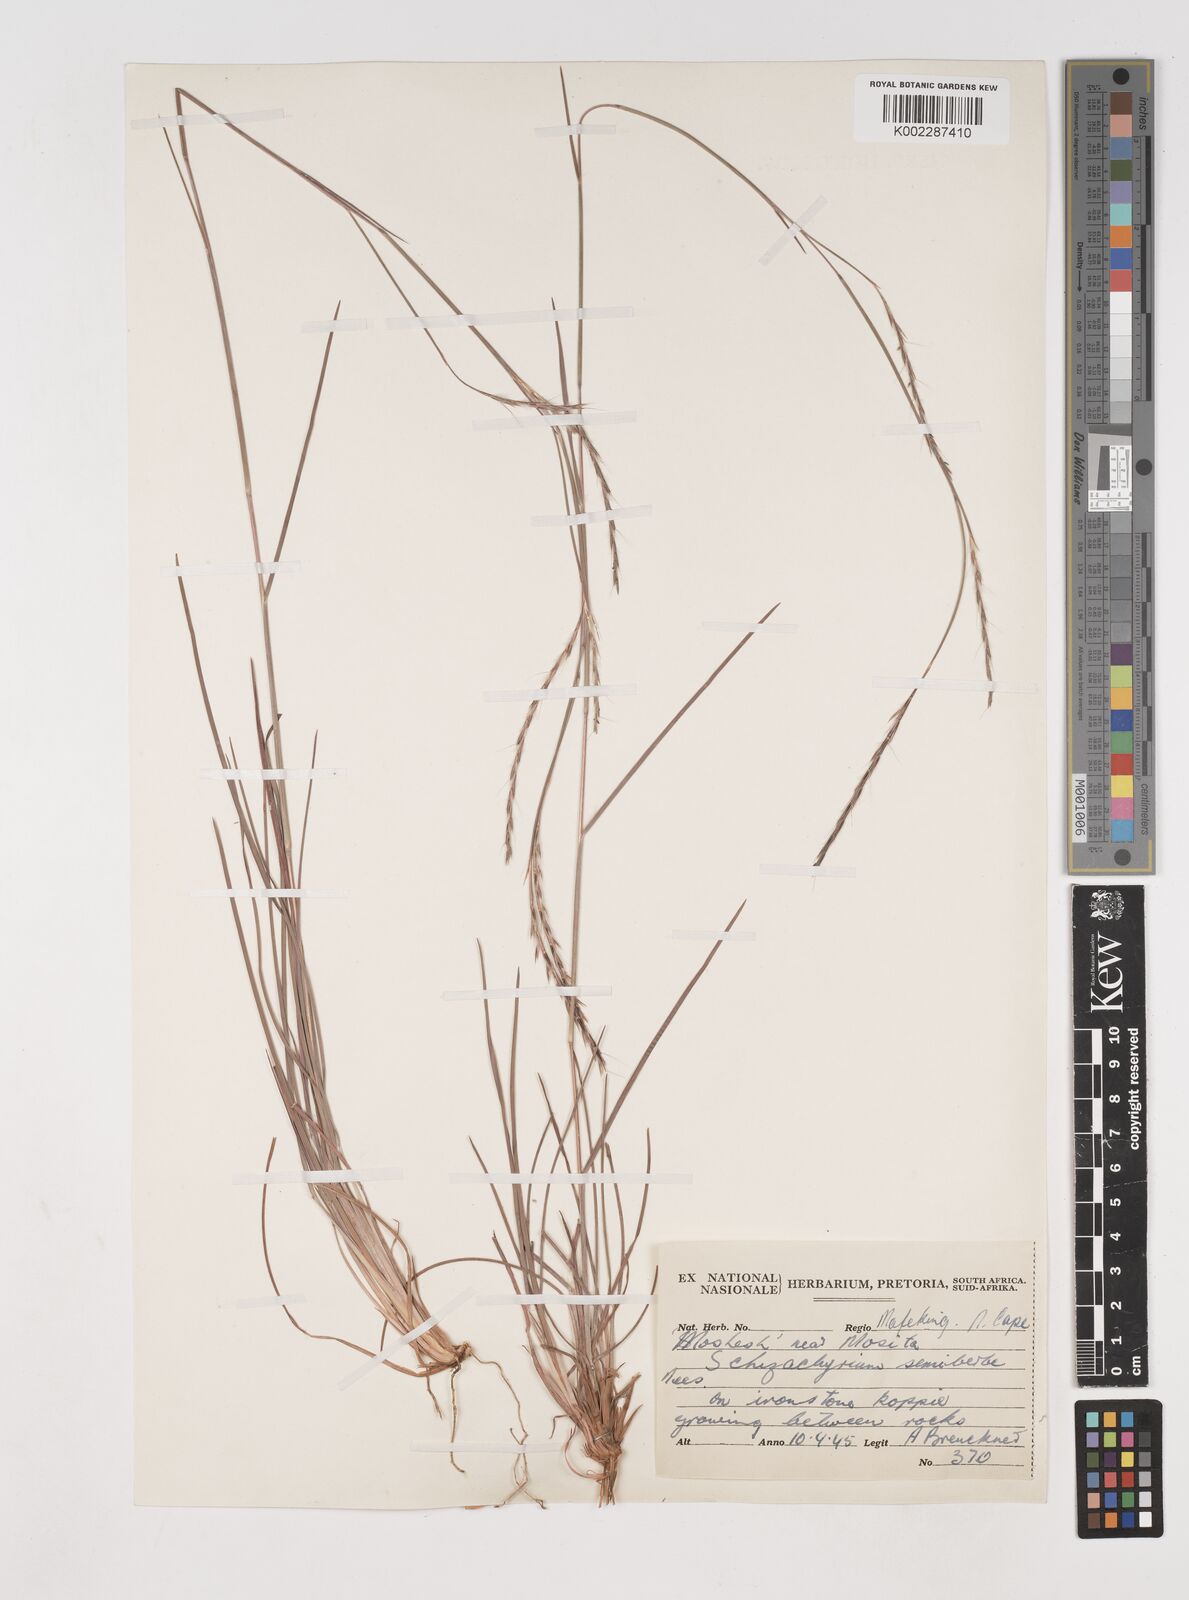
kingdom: Plantae
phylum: Tracheophyta
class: Liliopsida
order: Poales
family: Poaceae
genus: Schizachyrium
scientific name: Schizachyrium sanguineum
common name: Crimson bluestem
